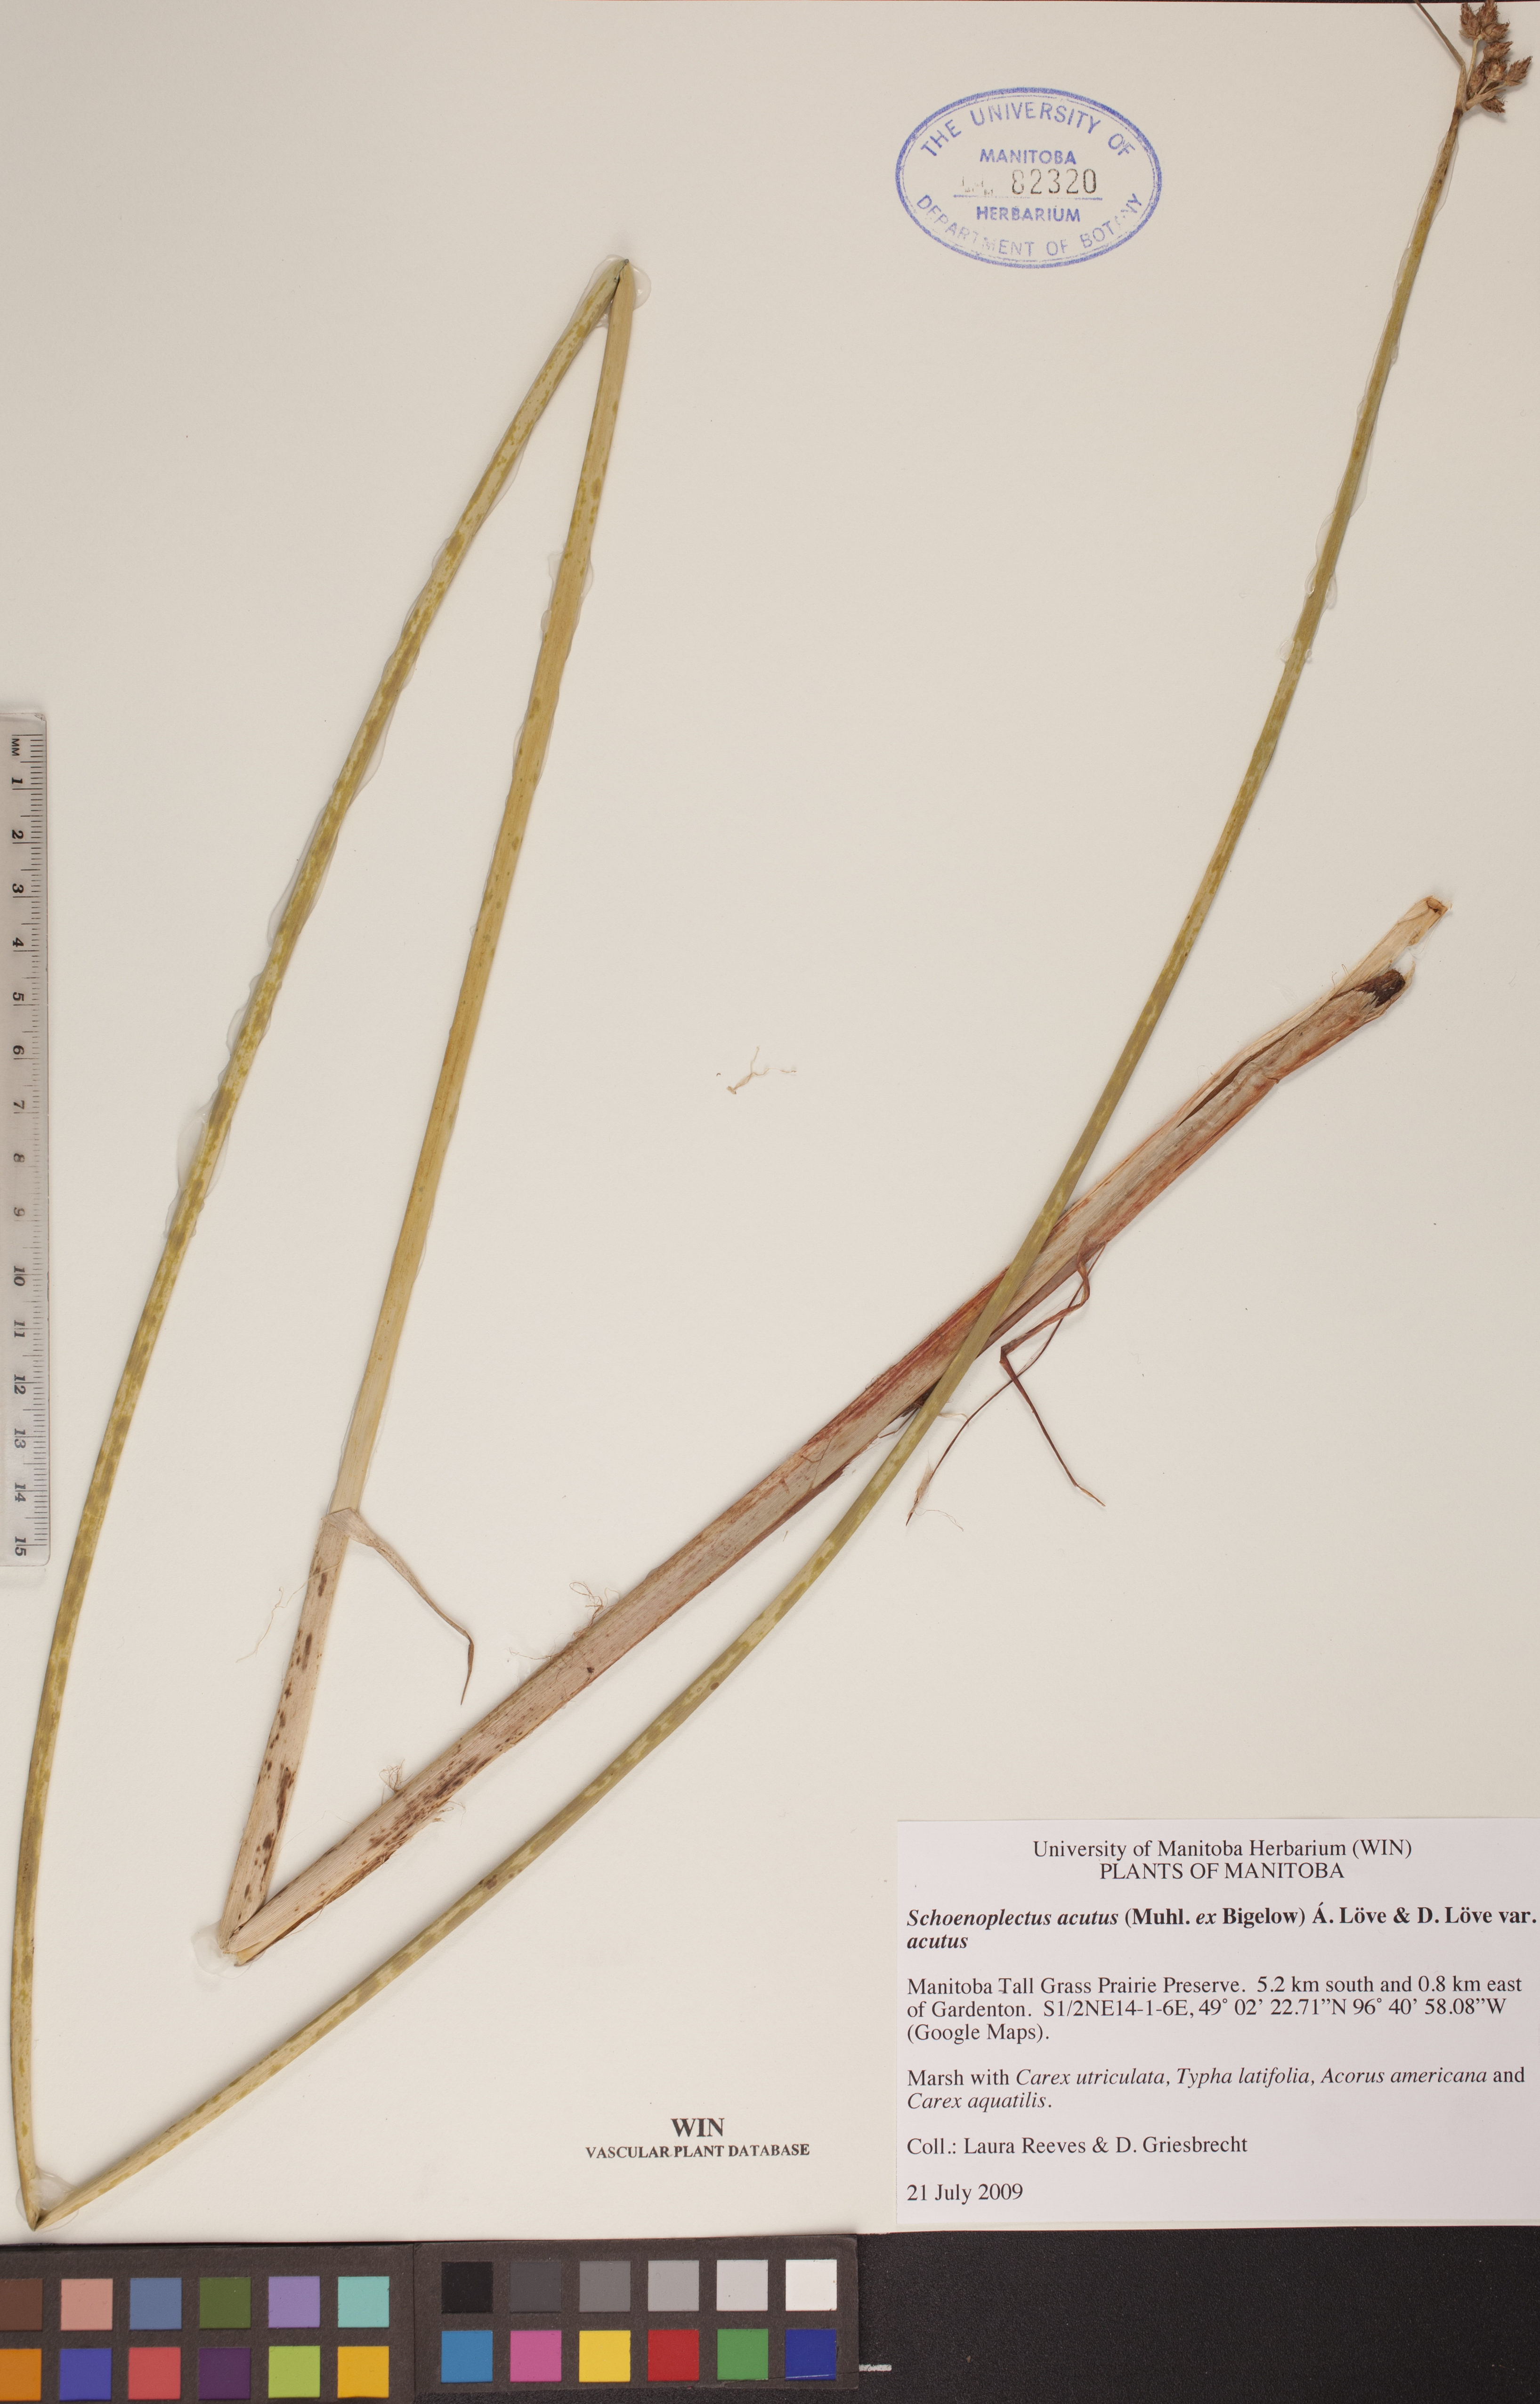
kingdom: Plantae
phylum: Tracheophyta
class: Liliopsida
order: Poales
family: Cyperaceae
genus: Schoenoplectus
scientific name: Schoenoplectus acutus
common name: Hardstem bulrush
